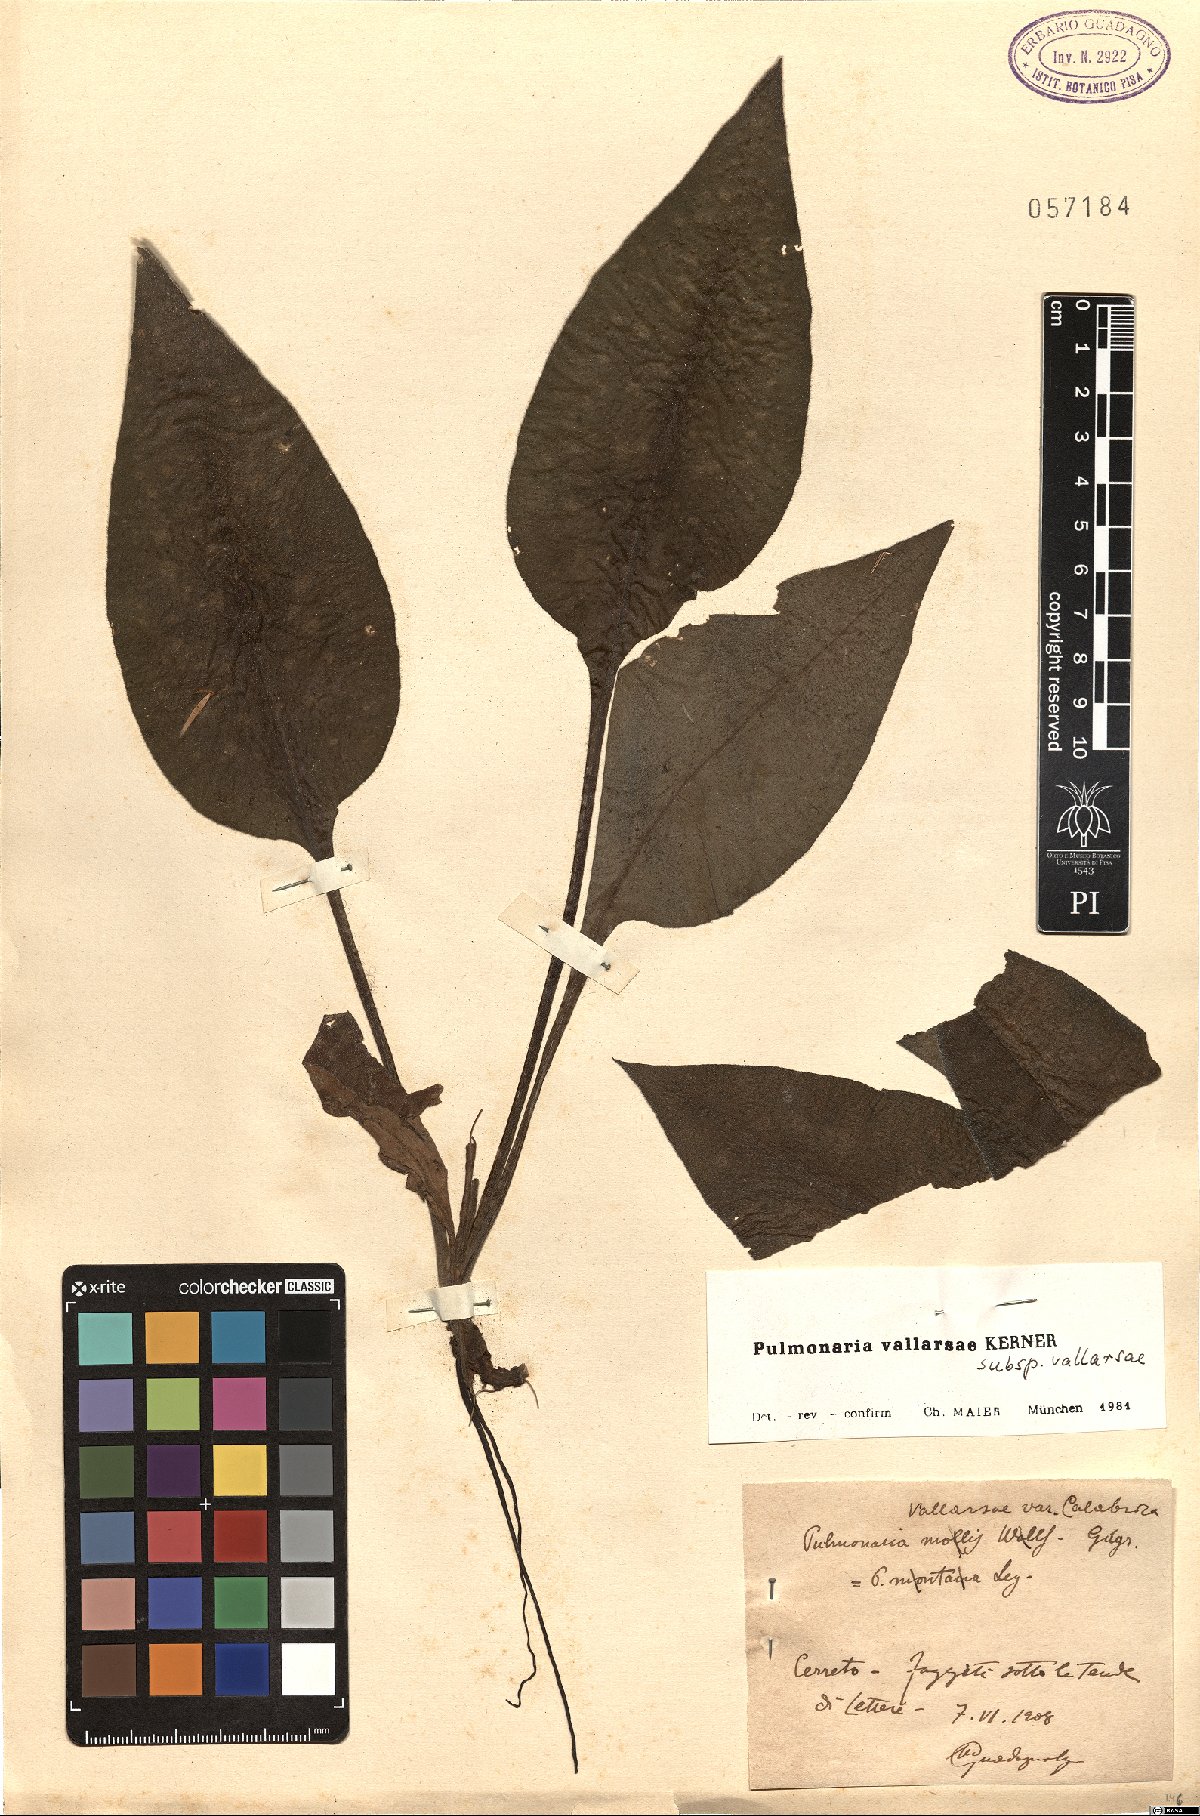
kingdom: Plantae
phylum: Tracheophyta
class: Magnoliopsida
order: Boraginales
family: Boraginaceae
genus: Pulmonaria
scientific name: Pulmonaria hirta
